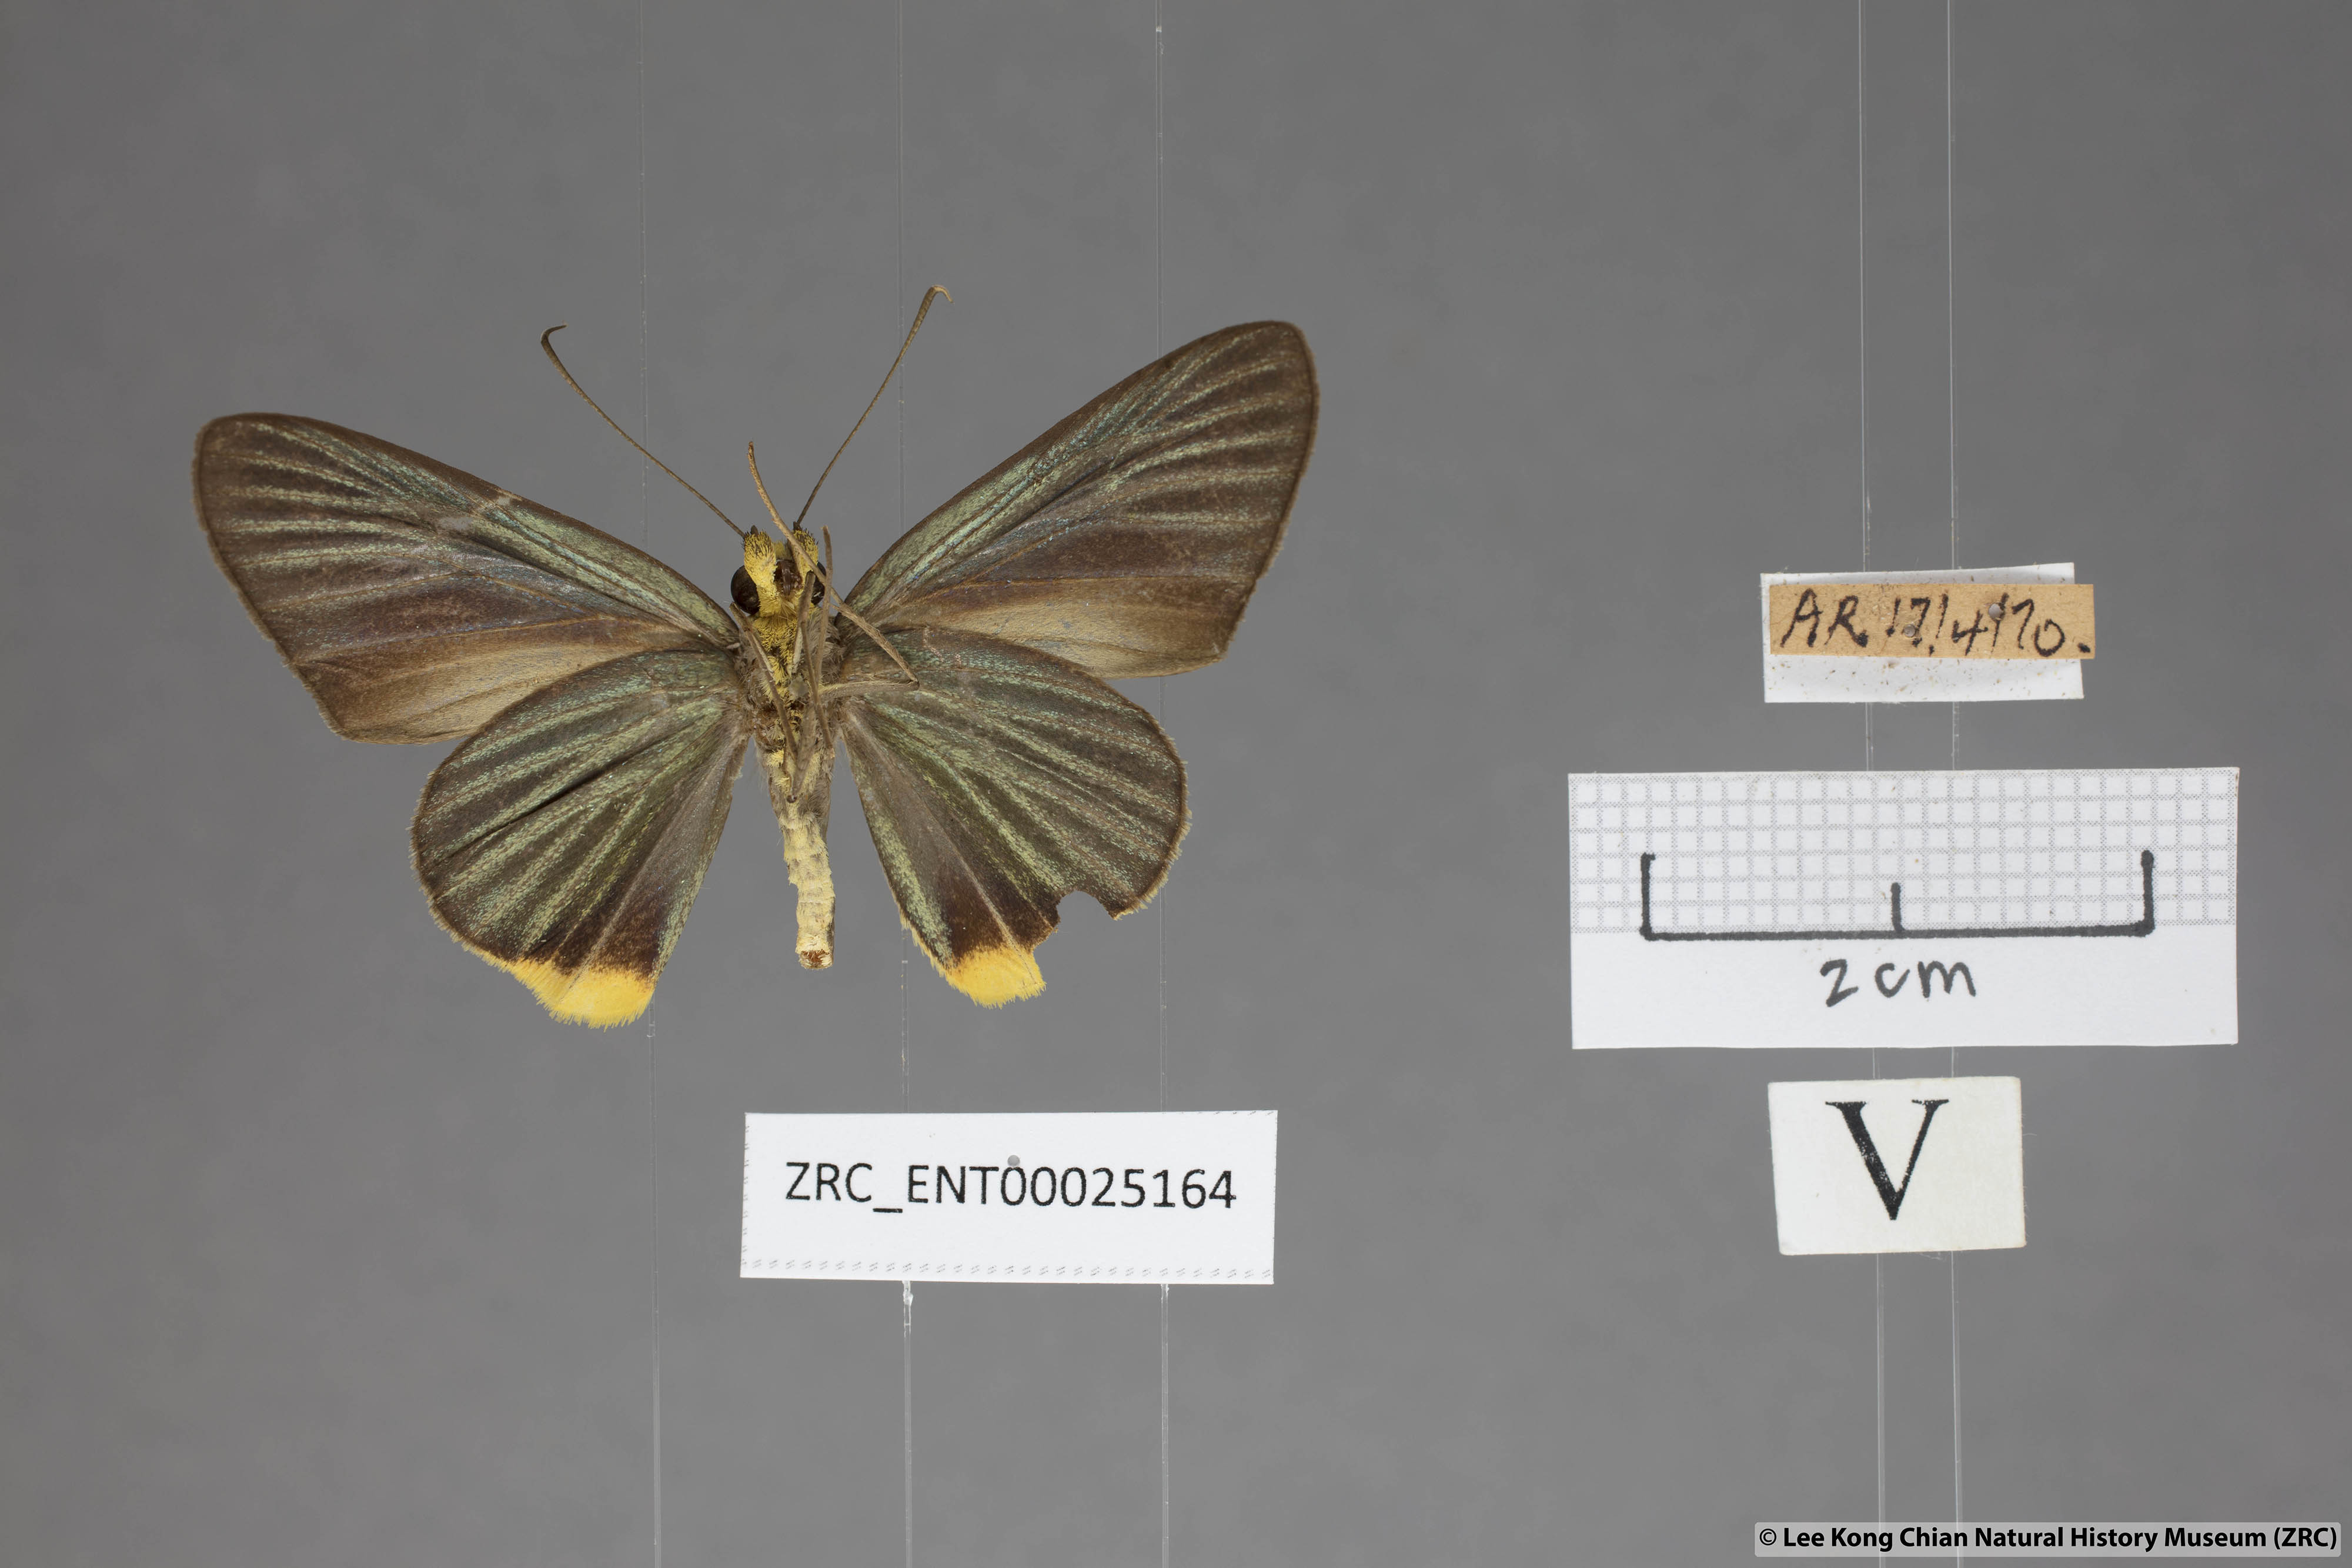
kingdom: Animalia
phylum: Arthropoda
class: Insecta
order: Lepidoptera
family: Hesperiidae
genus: Pirdana
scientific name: Pirdana hyela
